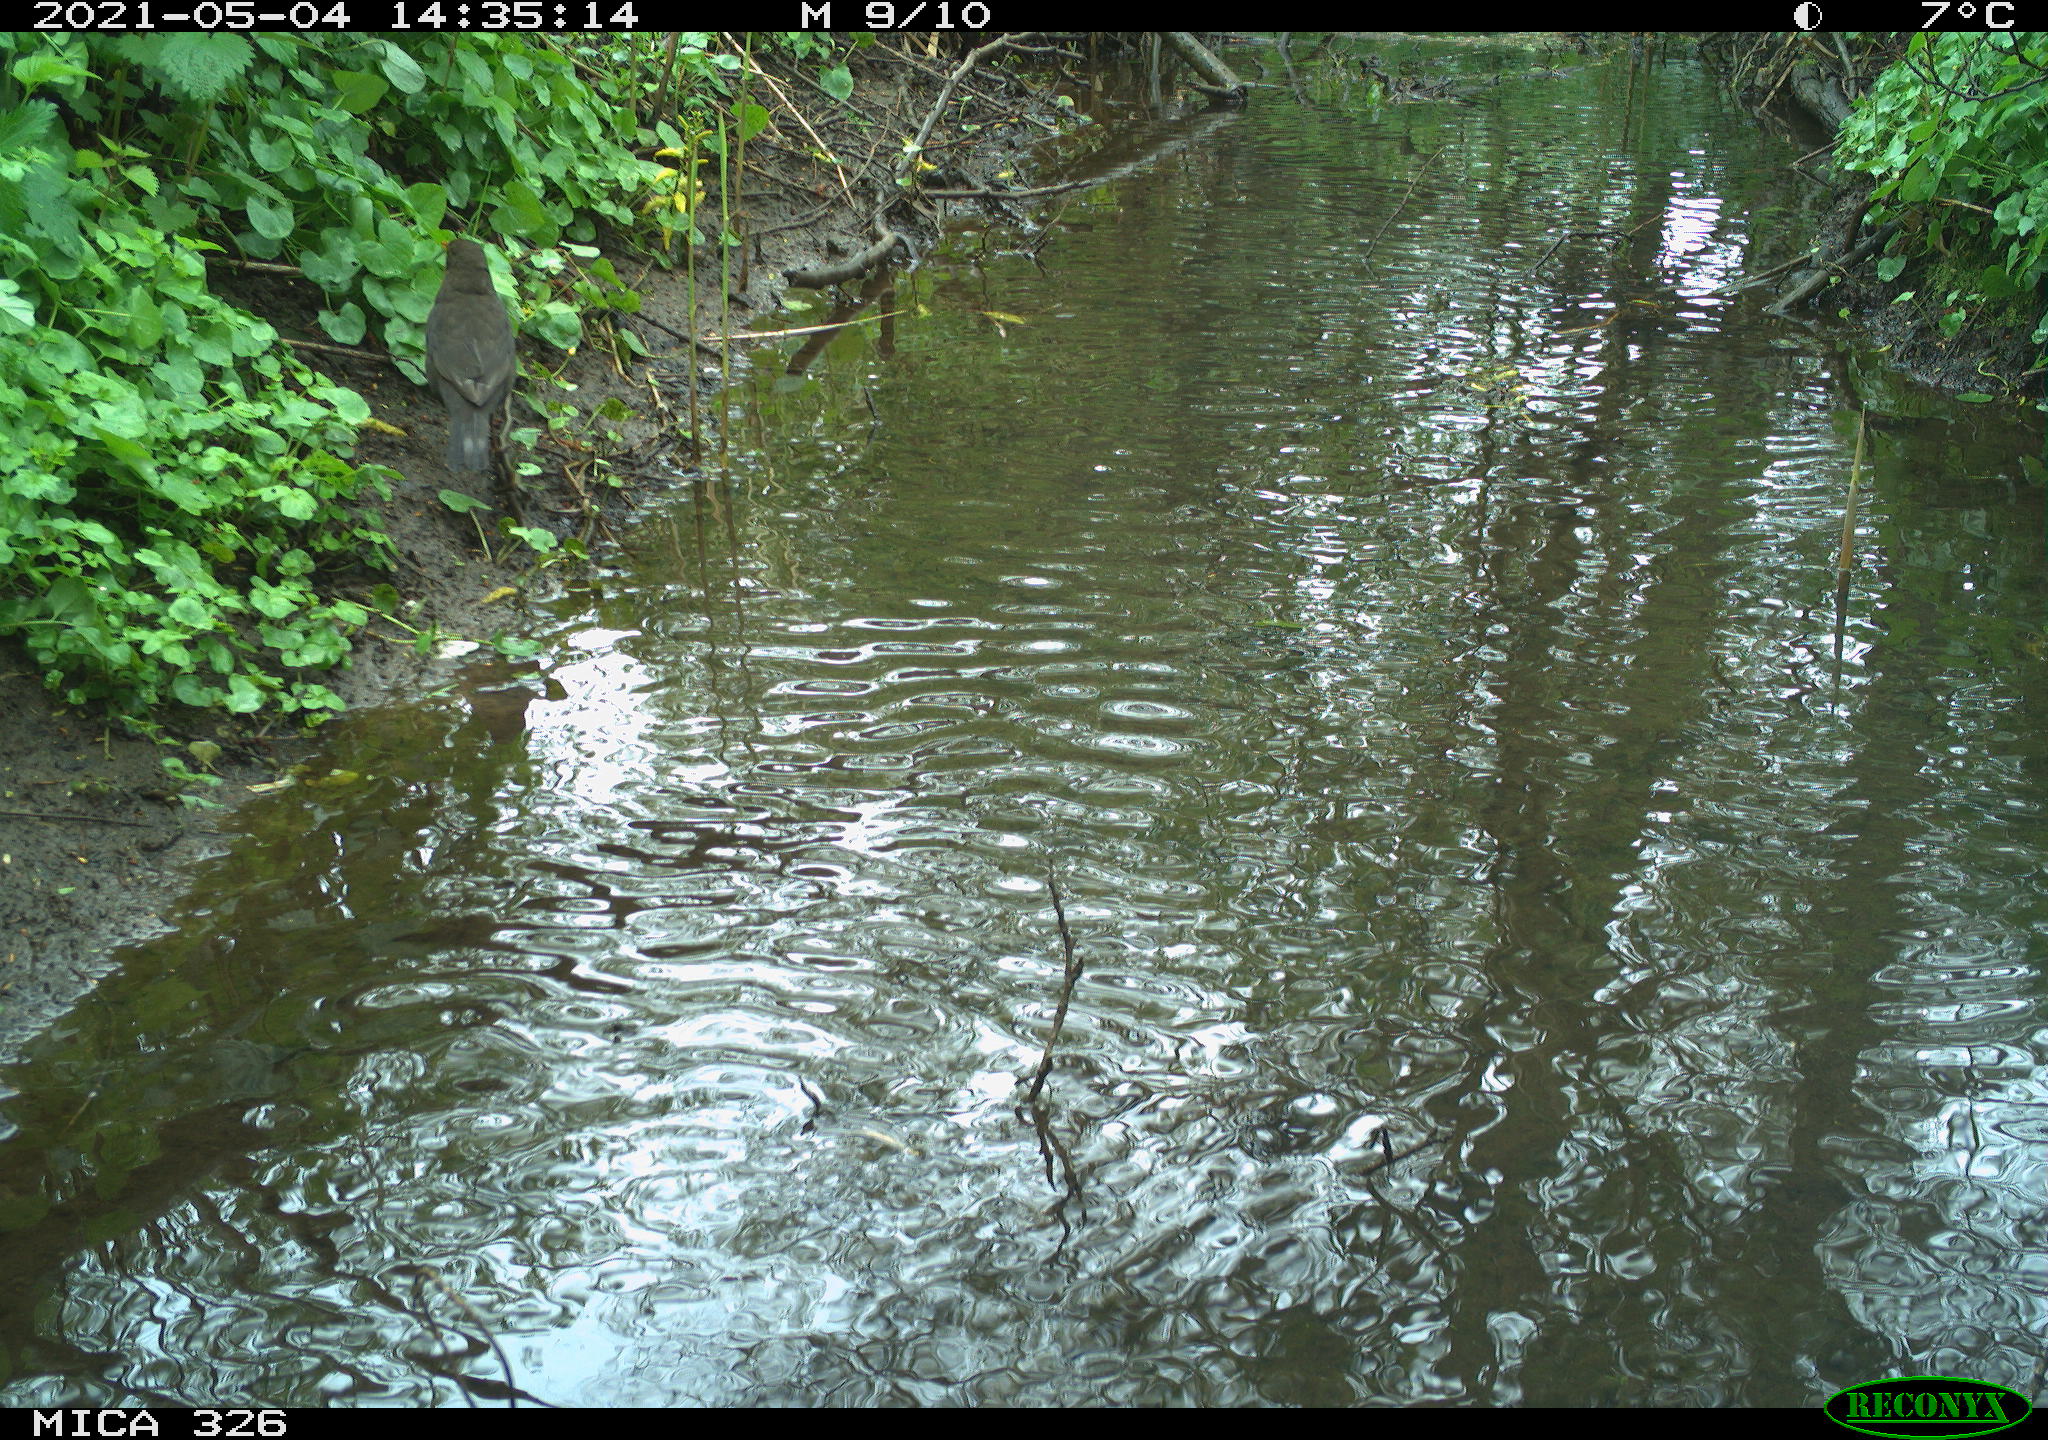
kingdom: Animalia
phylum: Chordata
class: Aves
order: Passeriformes
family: Turdidae
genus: Turdus
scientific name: Turdus merula
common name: Common blackbird
